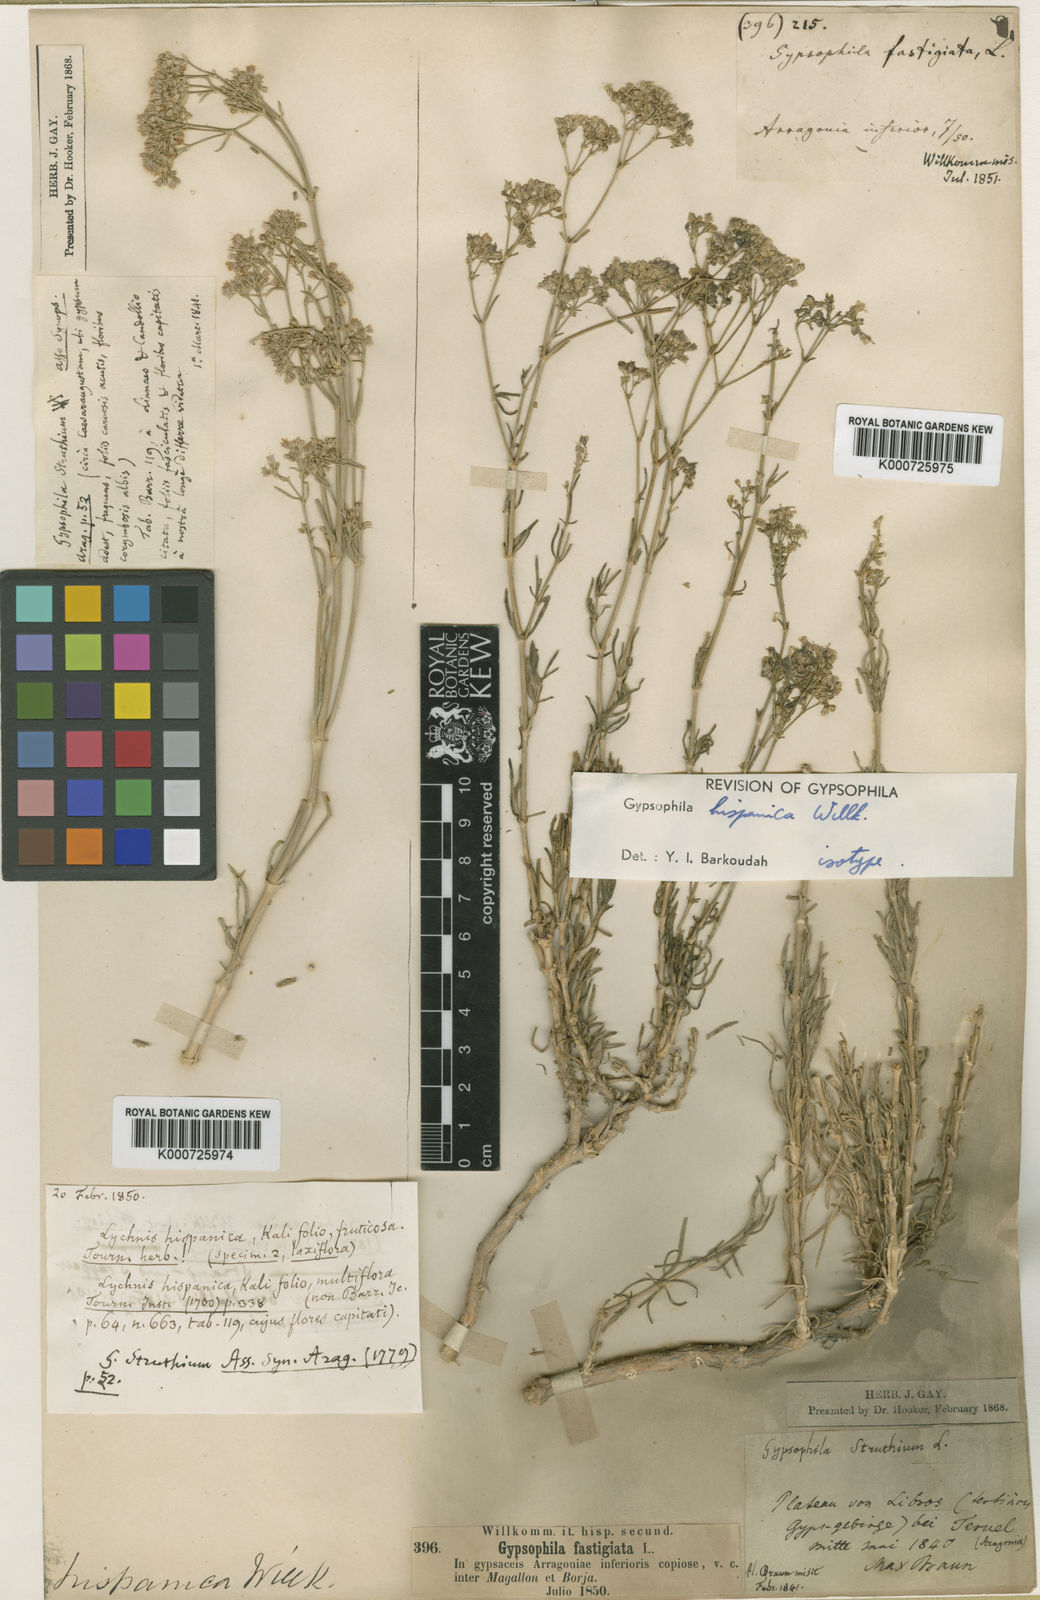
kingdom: Plantae
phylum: Tracheophyta
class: Magnoliopsida
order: Caryophyllales
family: Caryophyllaceae
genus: Gypsophila
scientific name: Gypsophila struthium
